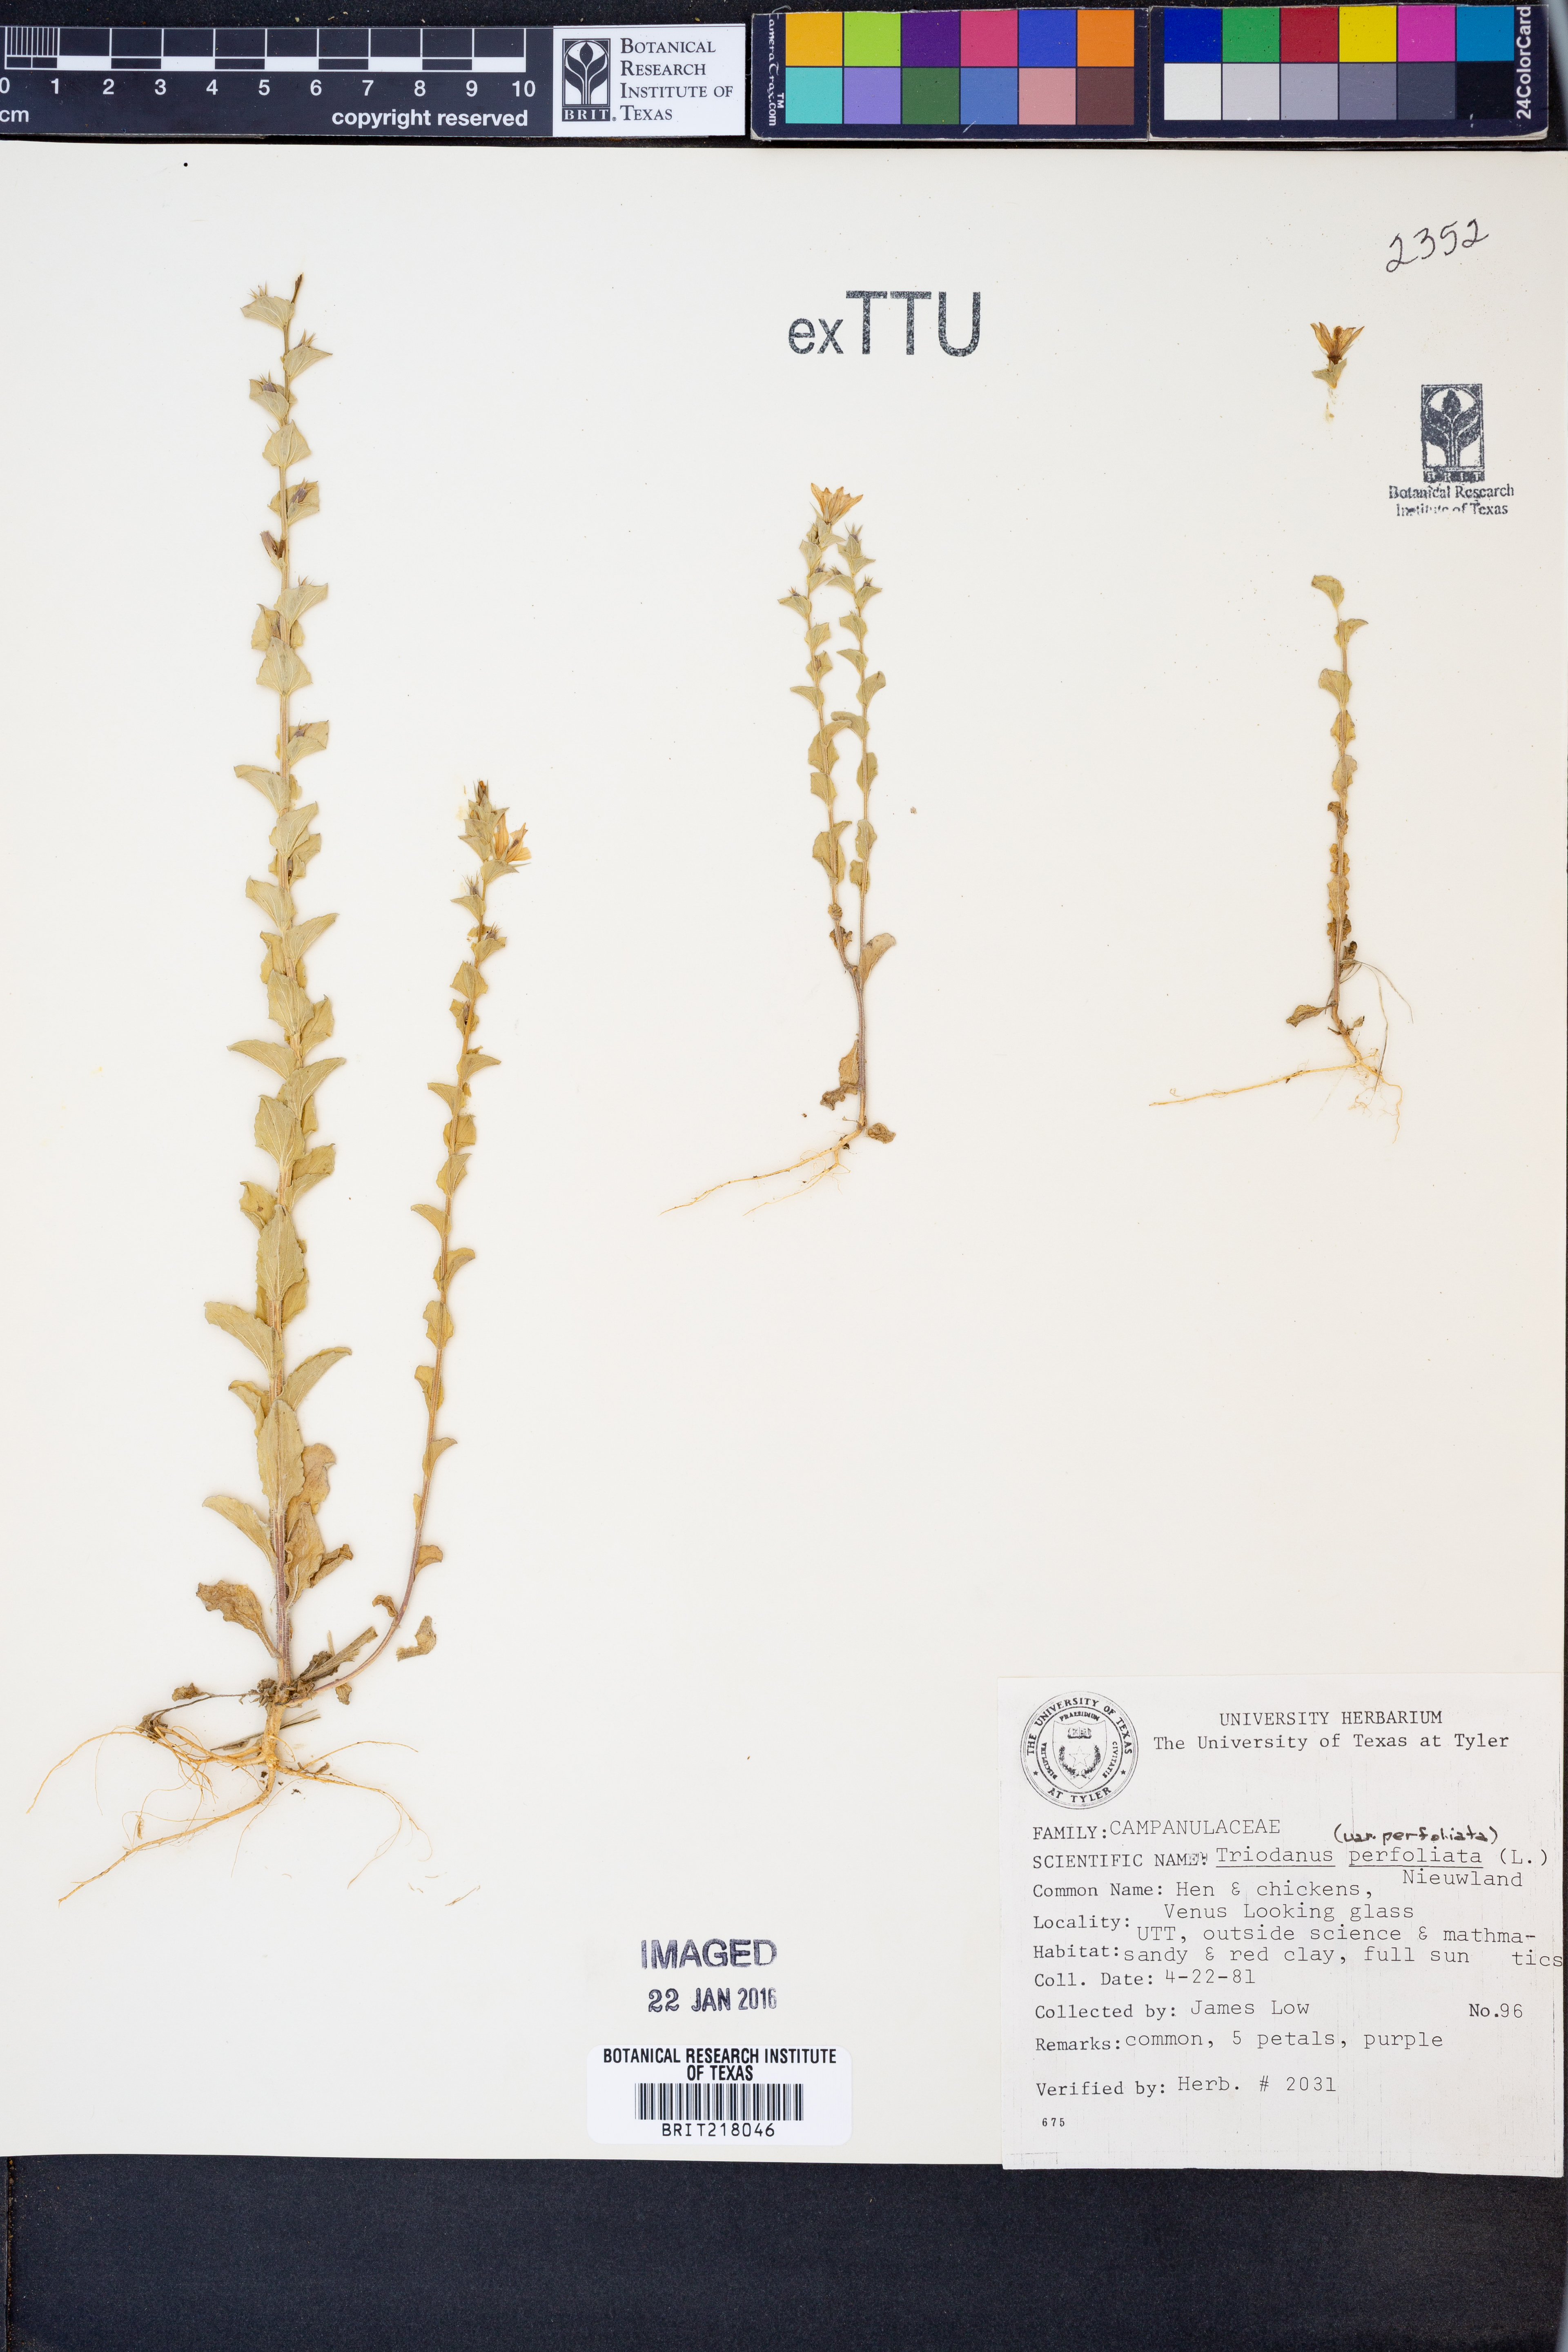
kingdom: Plantae
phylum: Tracheophyta
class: Magnoliopsida
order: Asterales
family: Campanulaceae
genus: Triodanis
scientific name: Triodanis perfoliata
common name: Clasping venus' looking-glass
